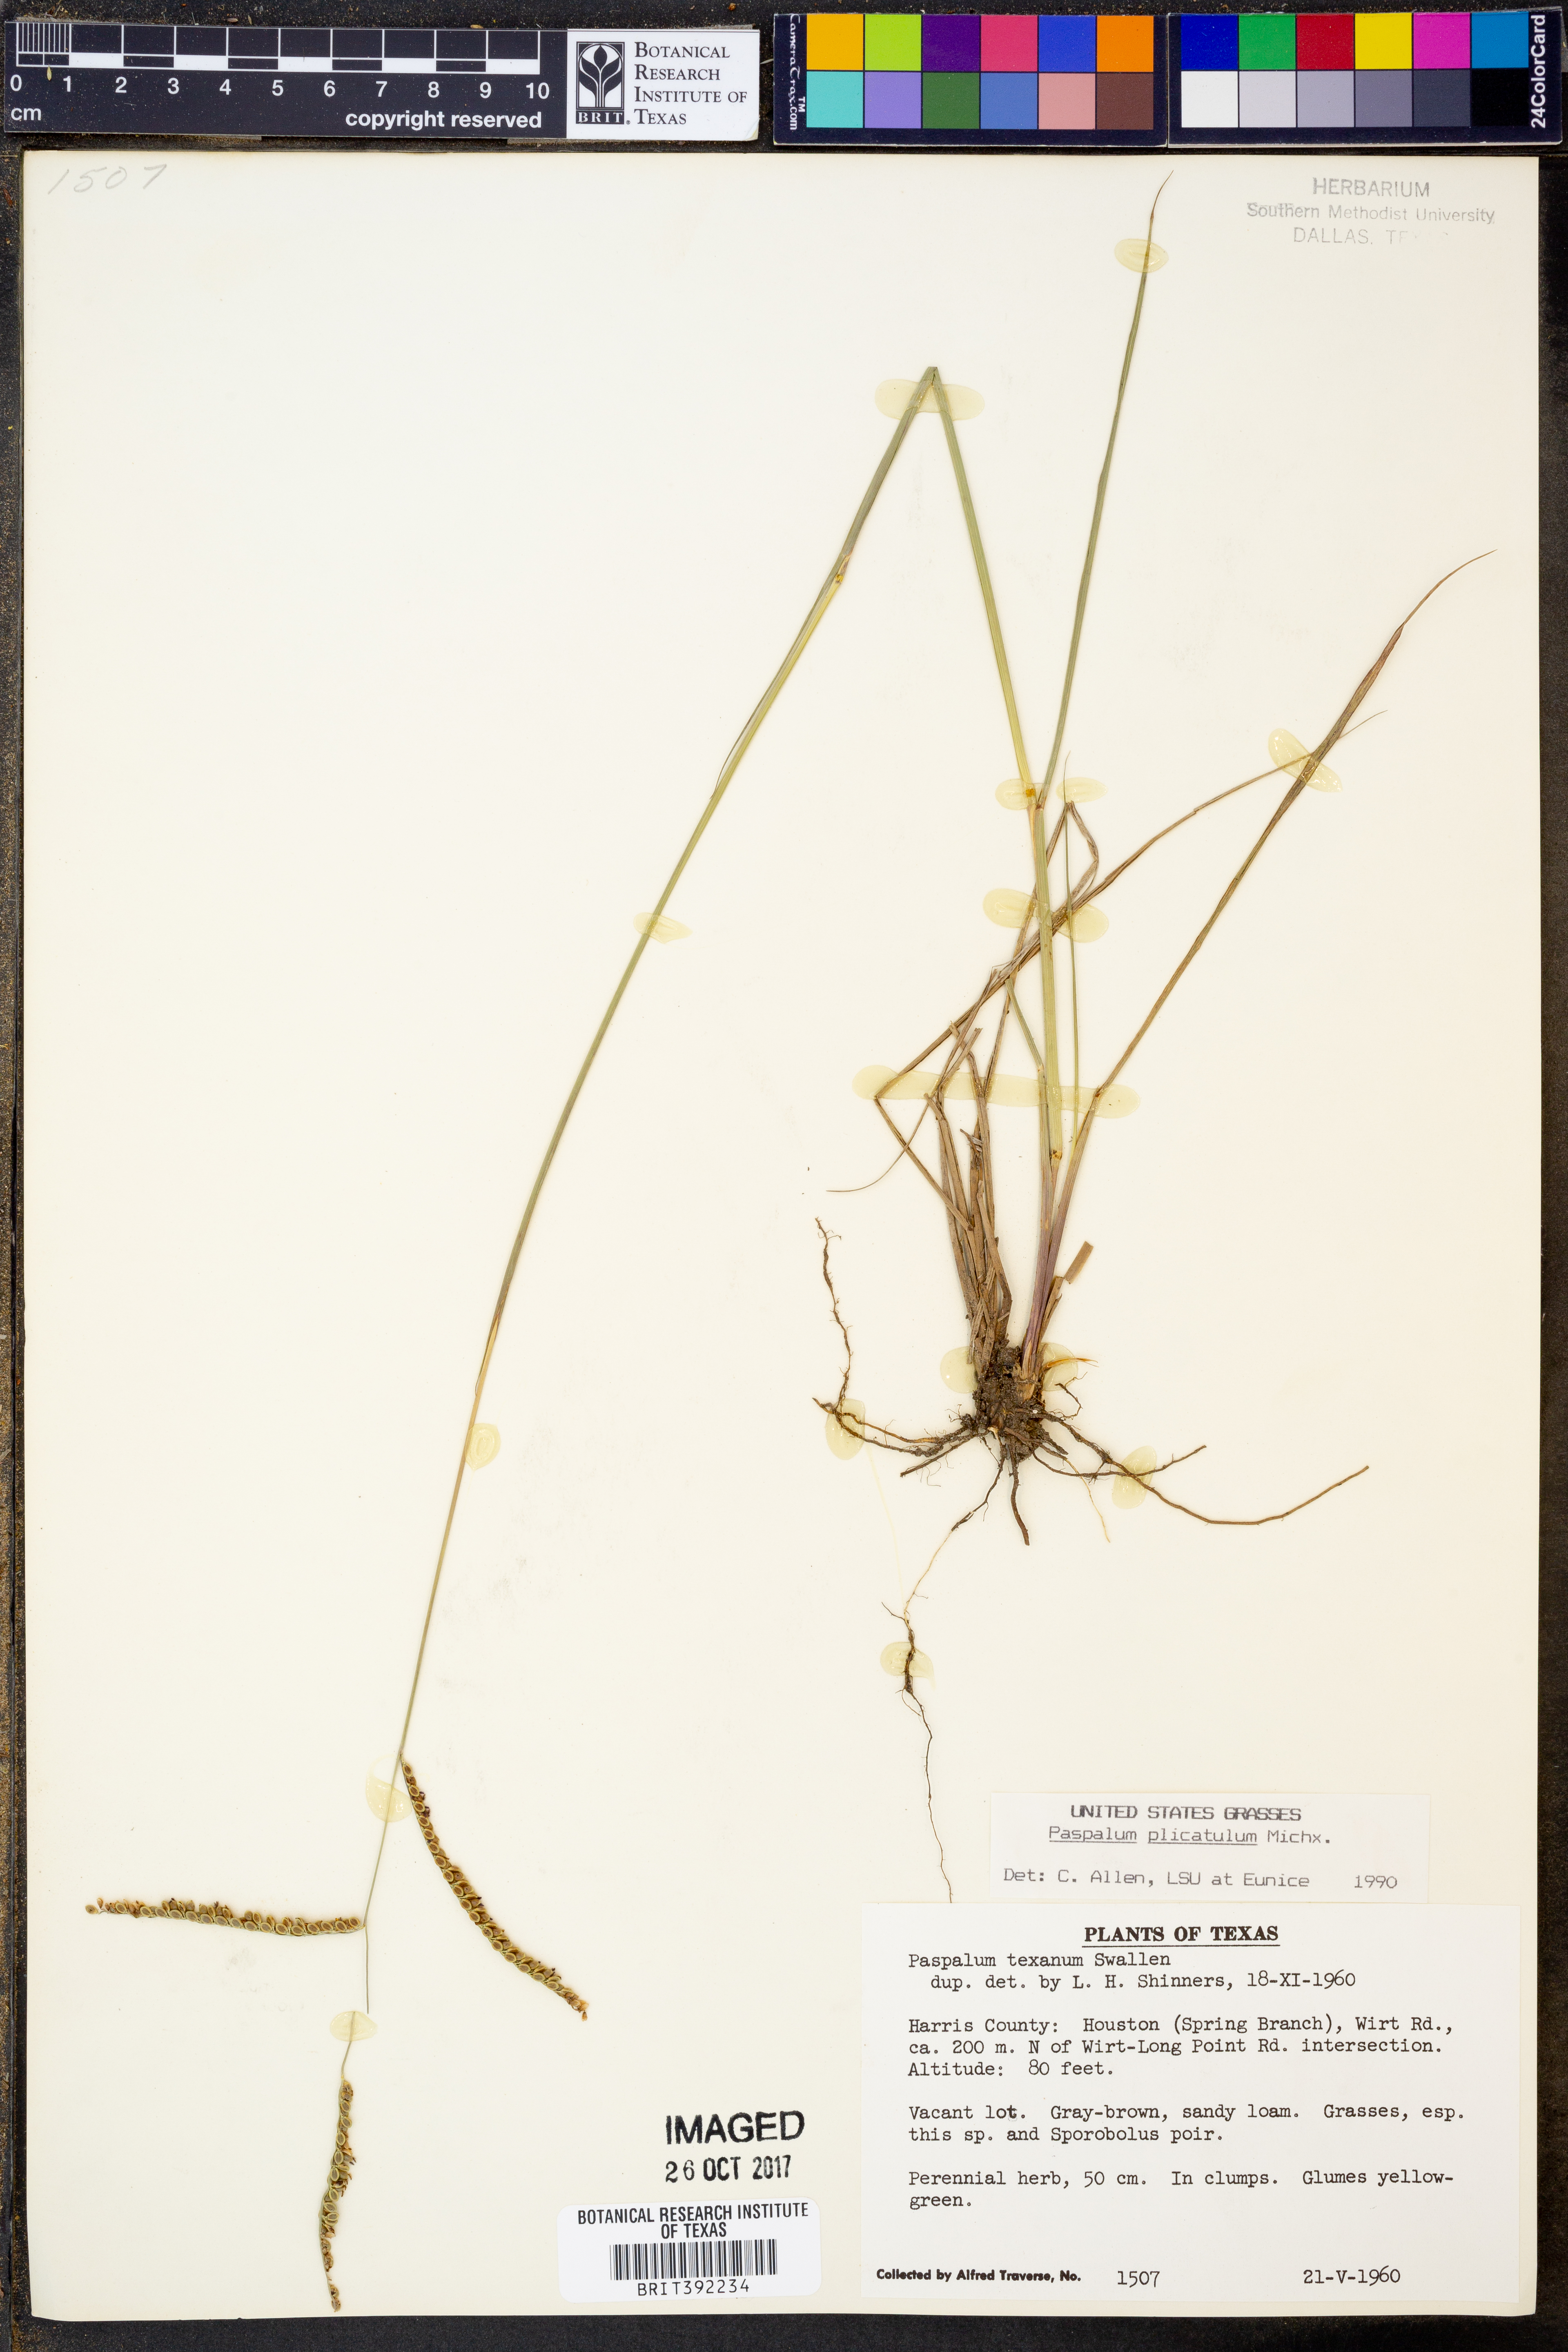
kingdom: Plantae
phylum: Tracheophyta
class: Liliopsida
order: Poales
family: Poaceae
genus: Paspalum
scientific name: Paspalum plicatulum
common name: Top paspalum
